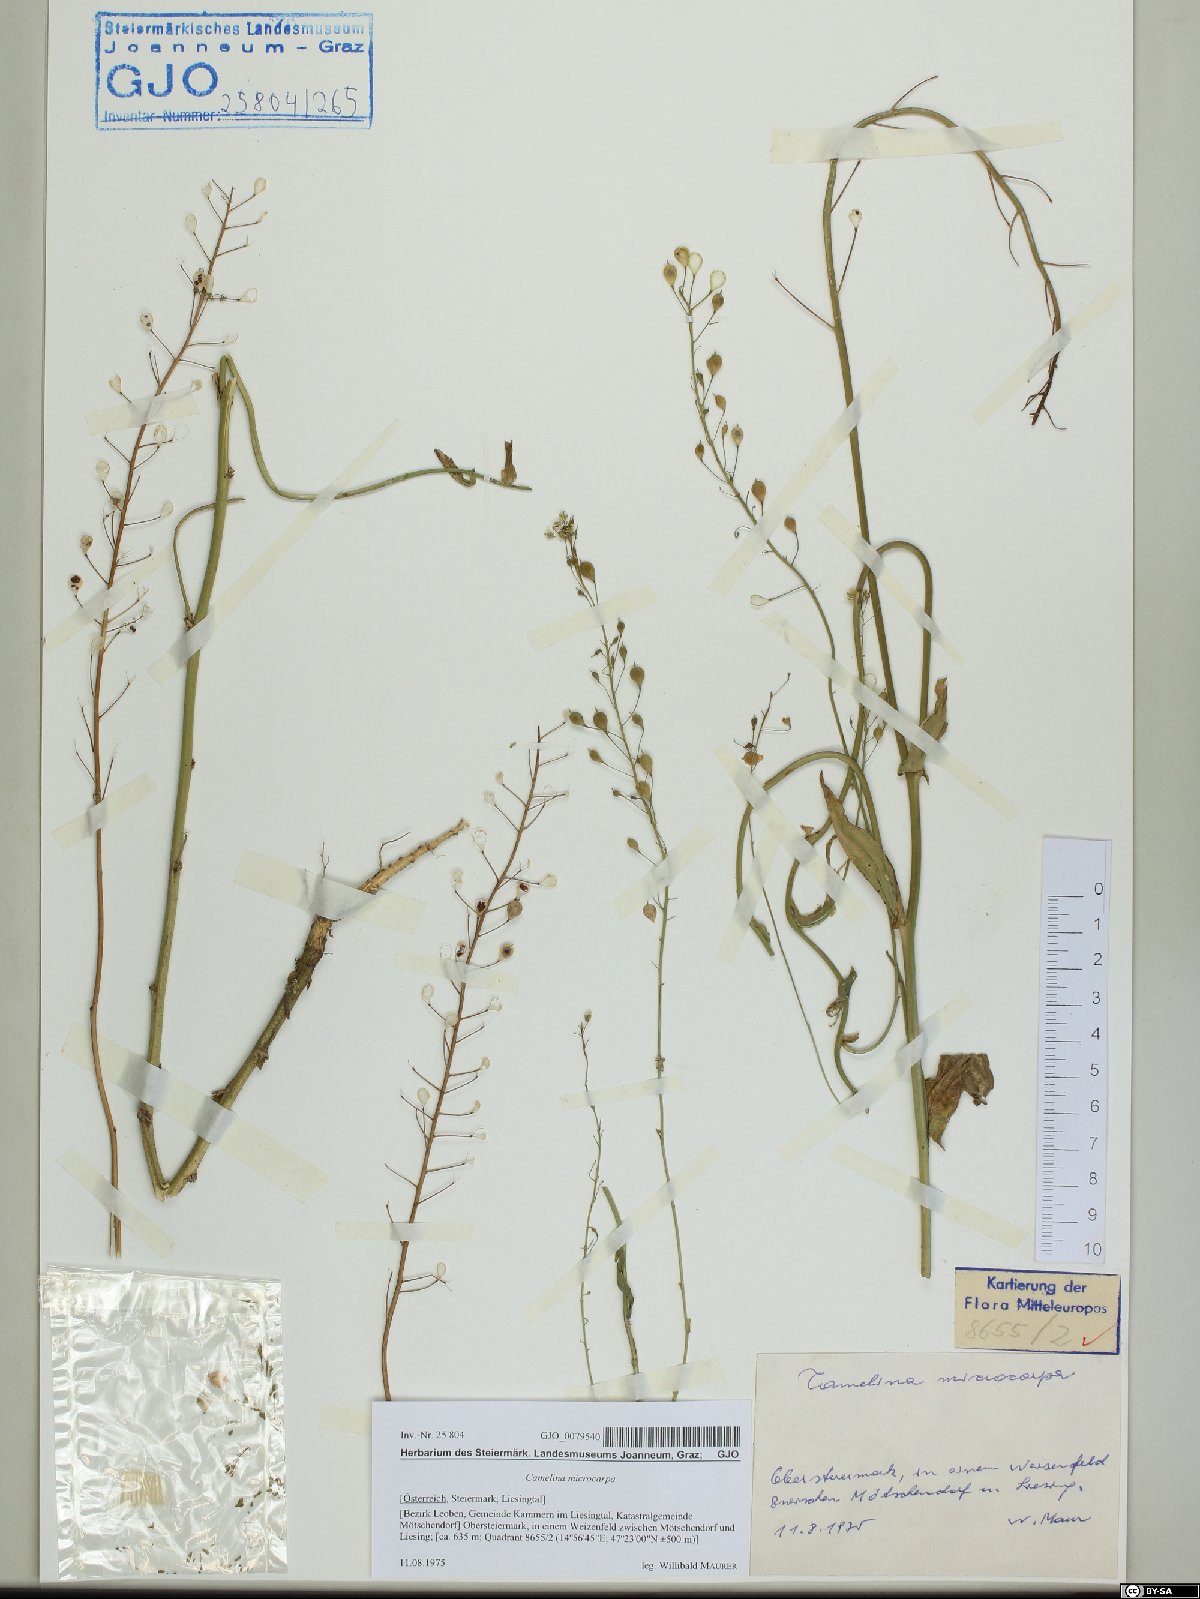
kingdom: Plantae
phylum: Tracheophyta
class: Magnoliopsida
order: Brassicales
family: Brassicaceae
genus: Camelina
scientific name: Camelina microcarpa
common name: Lesser gold-of-pleasure
